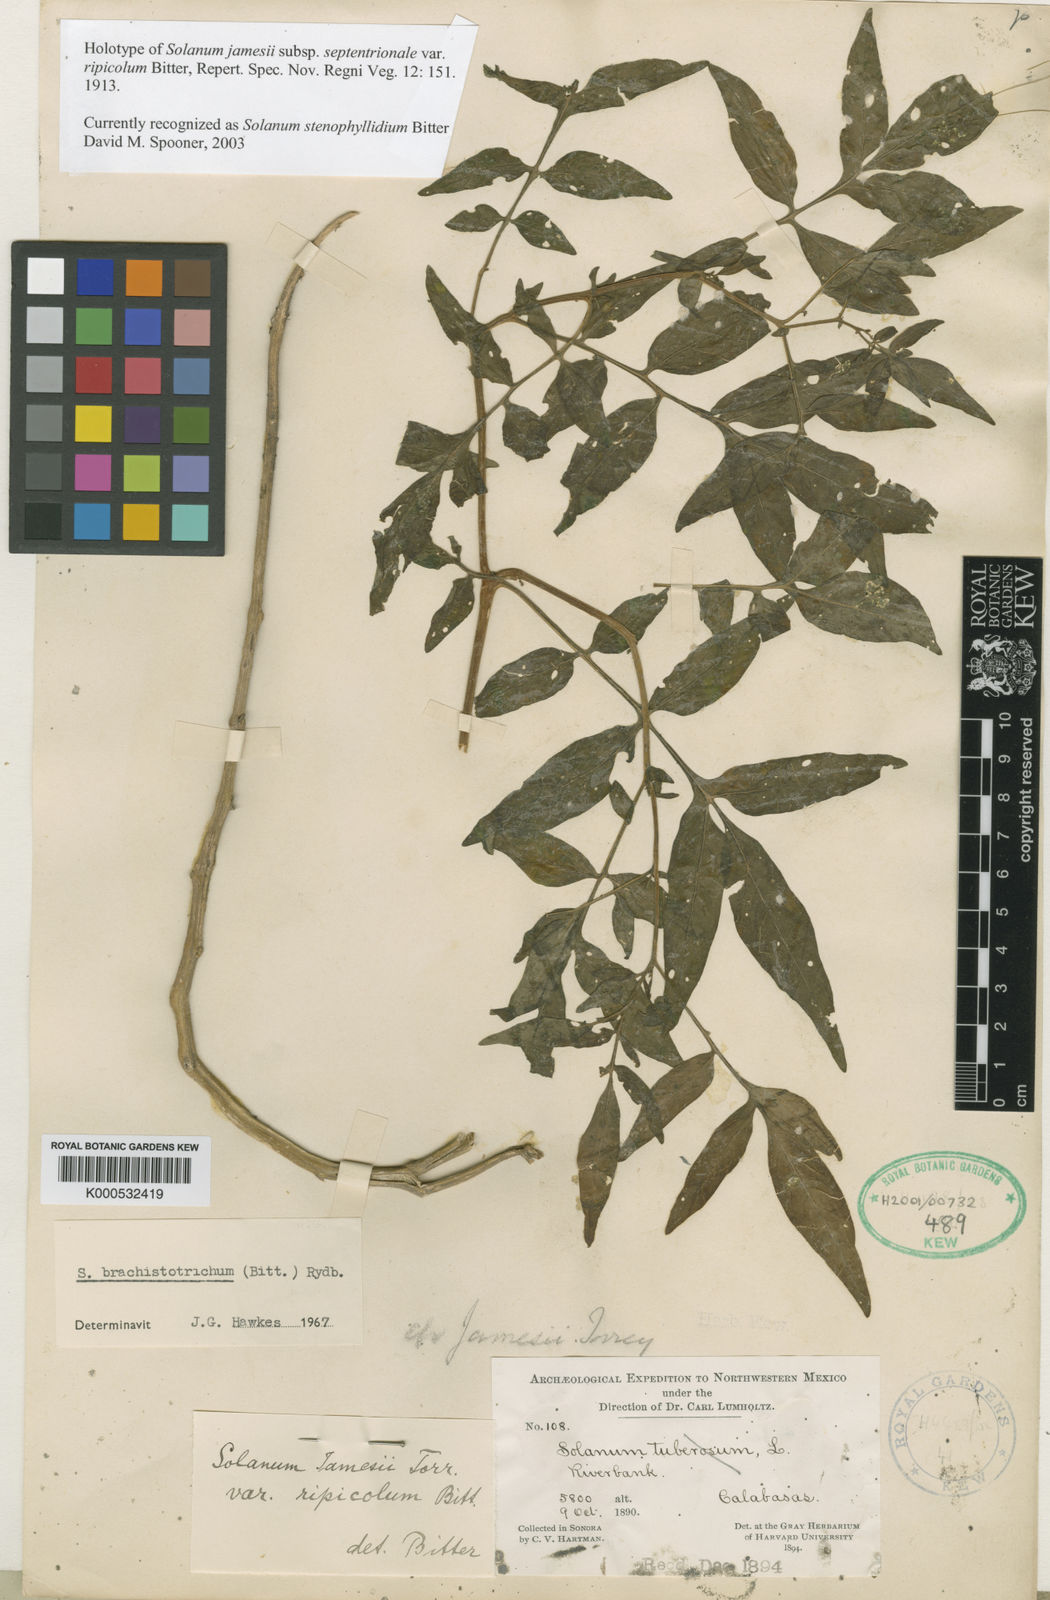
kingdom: Plantae
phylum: Tracheophyta
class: Magnoliopsida
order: Solanales
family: Solanaceae
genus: Solanum
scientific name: Solanum jamesii
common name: Wild potato
